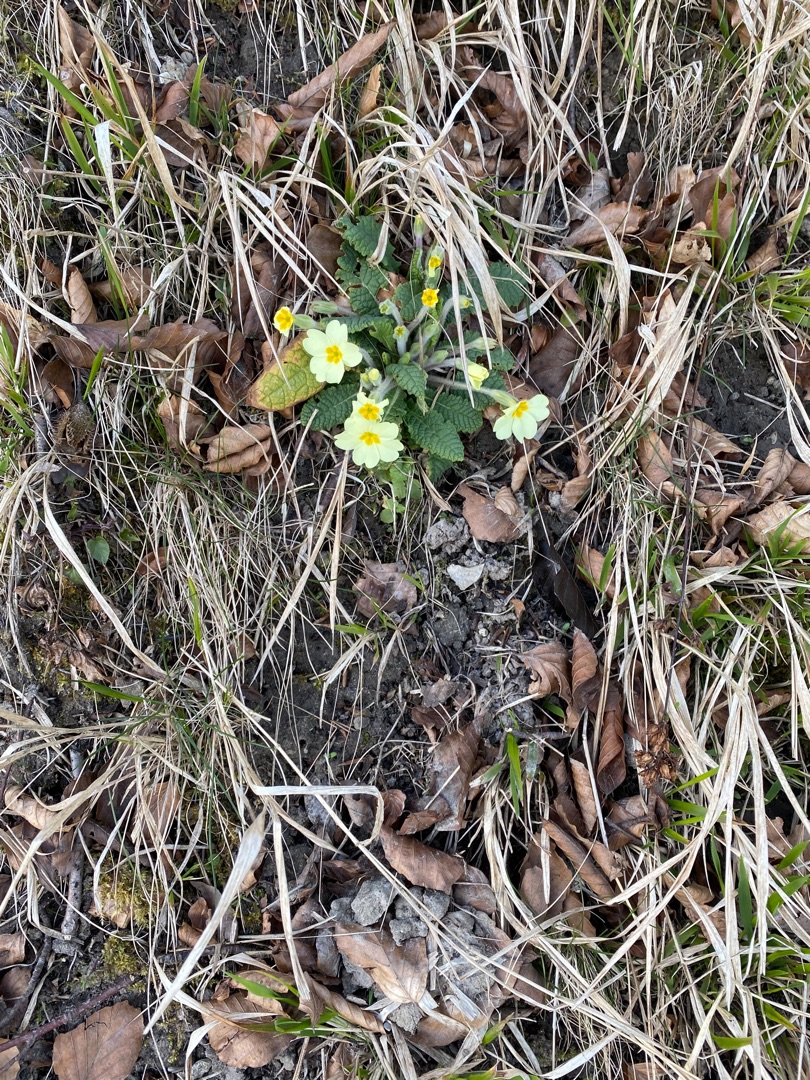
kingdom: Plantae
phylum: Tracheophyta
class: Magnoliopsida
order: Ericales
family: Primulaceae
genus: Primula
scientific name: Primula vulgaris
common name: Storblomstret kodriver
